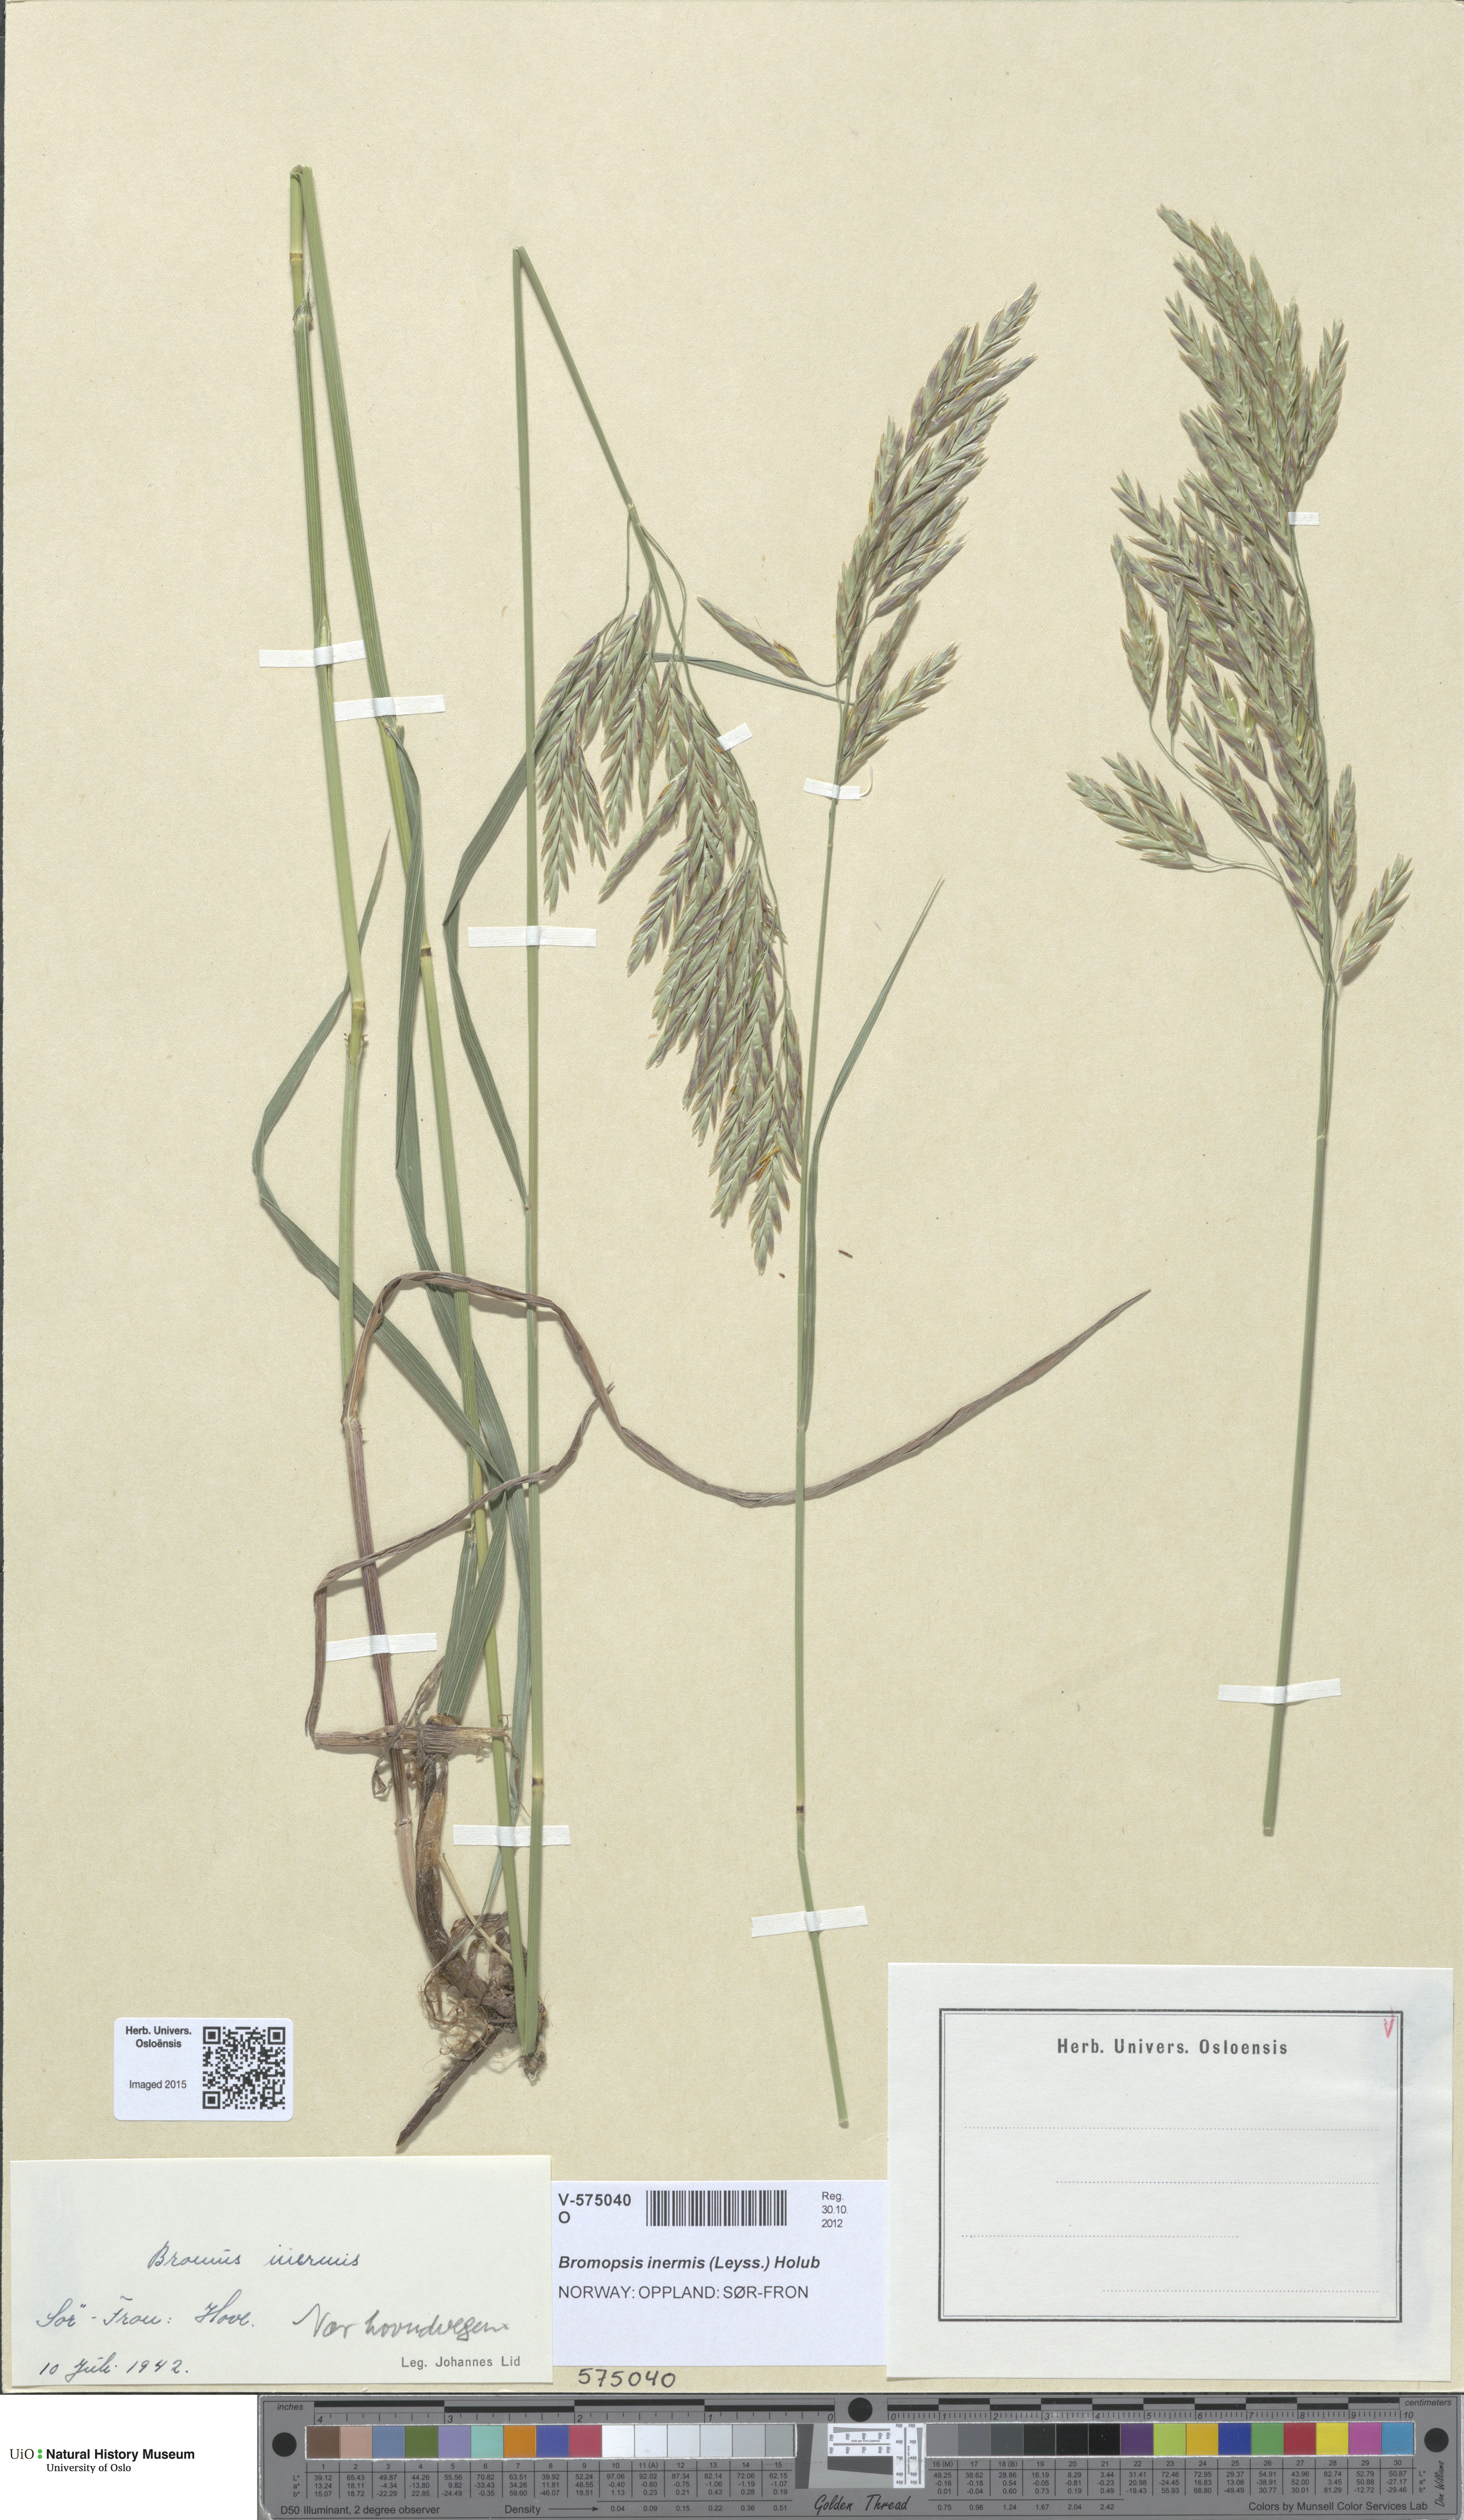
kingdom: Plantae
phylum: Tracheophyta
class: Liliopsida
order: Poales
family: Poaceae
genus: Bromus
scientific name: Bromus inermis
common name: Smooth brome
